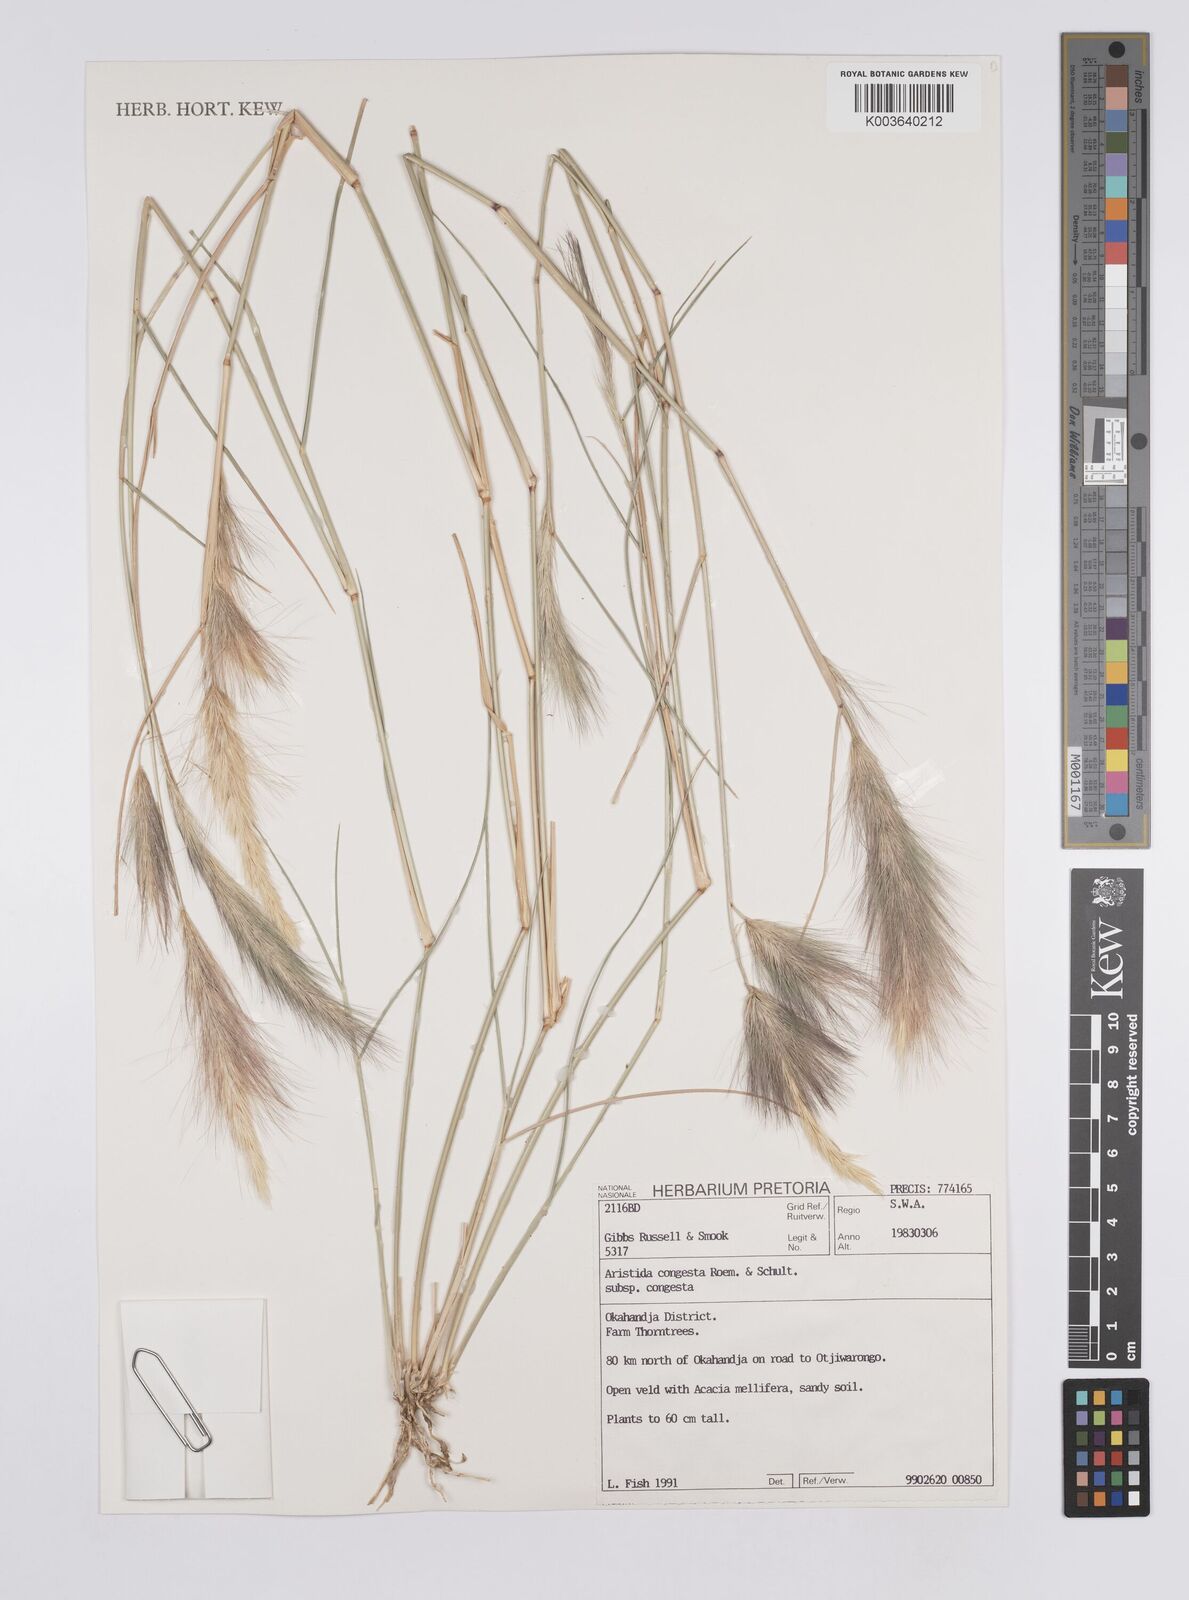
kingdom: Plantae
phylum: Tracheophyta
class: Liliopsida
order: Poales
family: Poaceae
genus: Aristida
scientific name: Aristida congesta
